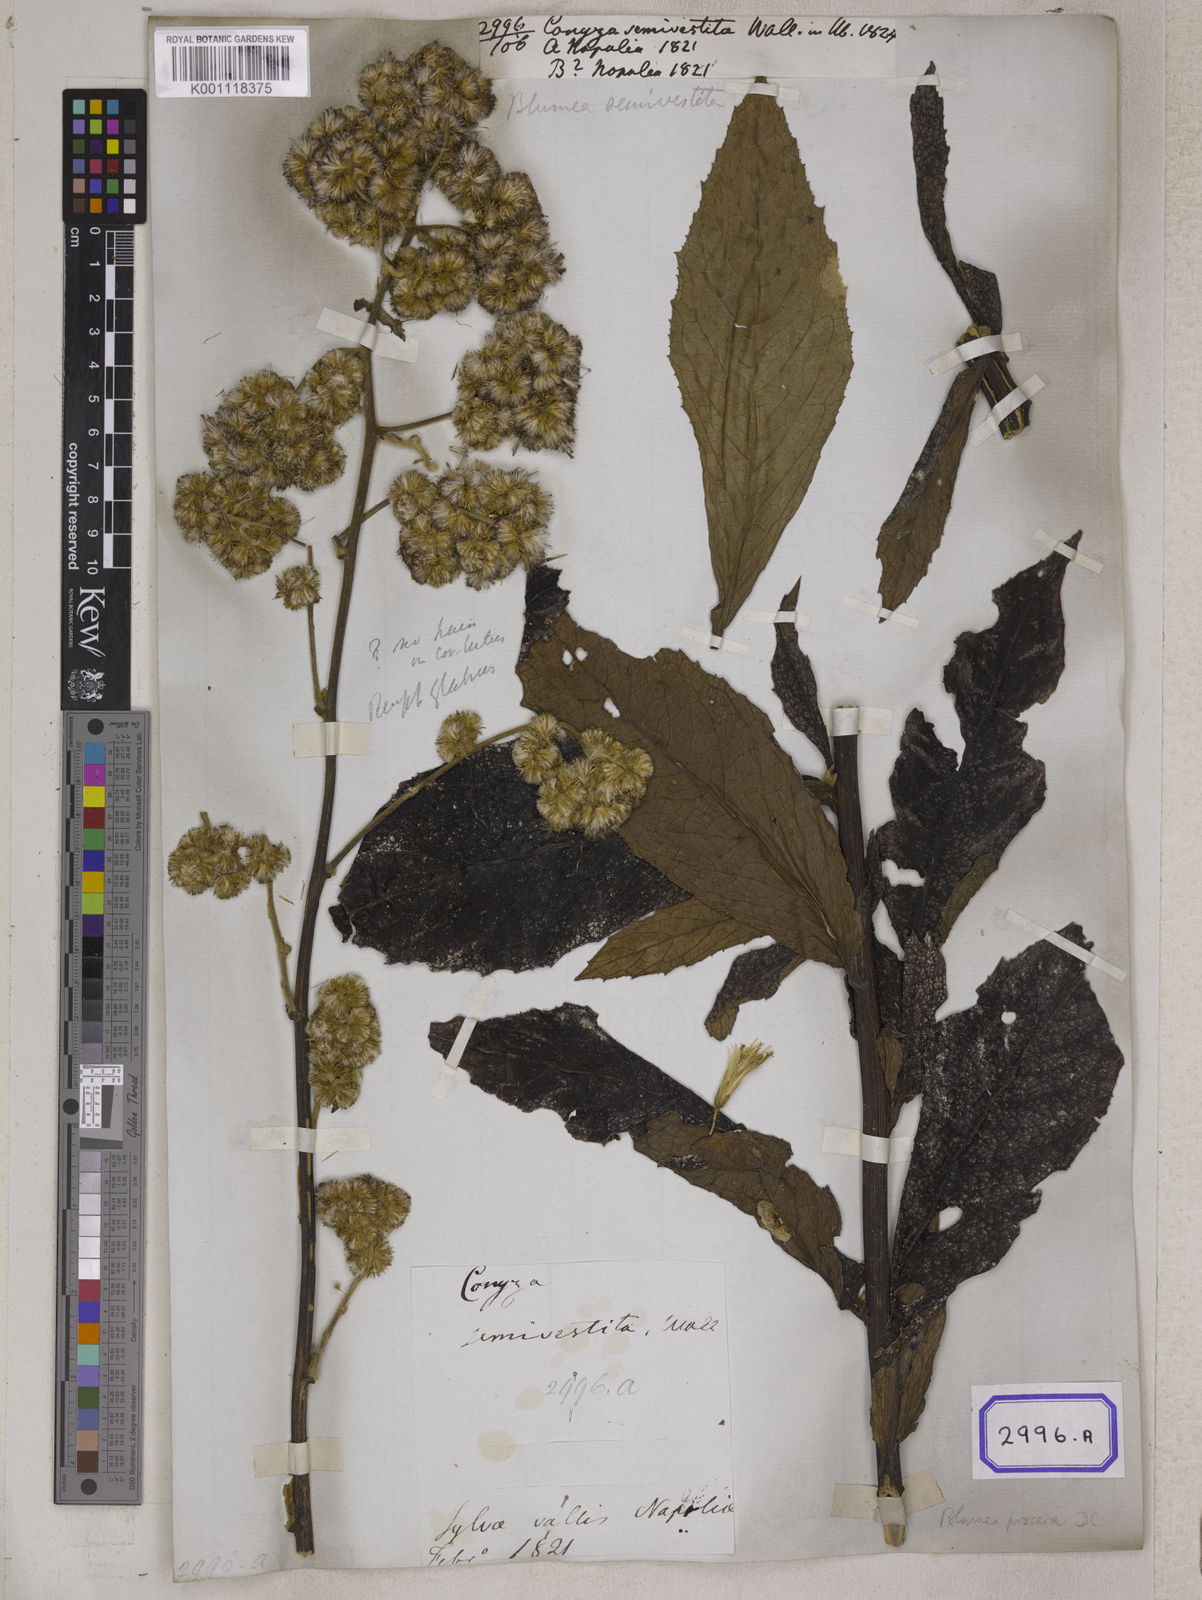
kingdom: Plantae
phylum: Tracheophyta
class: Magnoliopsida
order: Asterales
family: Asteraceae
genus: Blumea
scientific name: Blumea repanda
